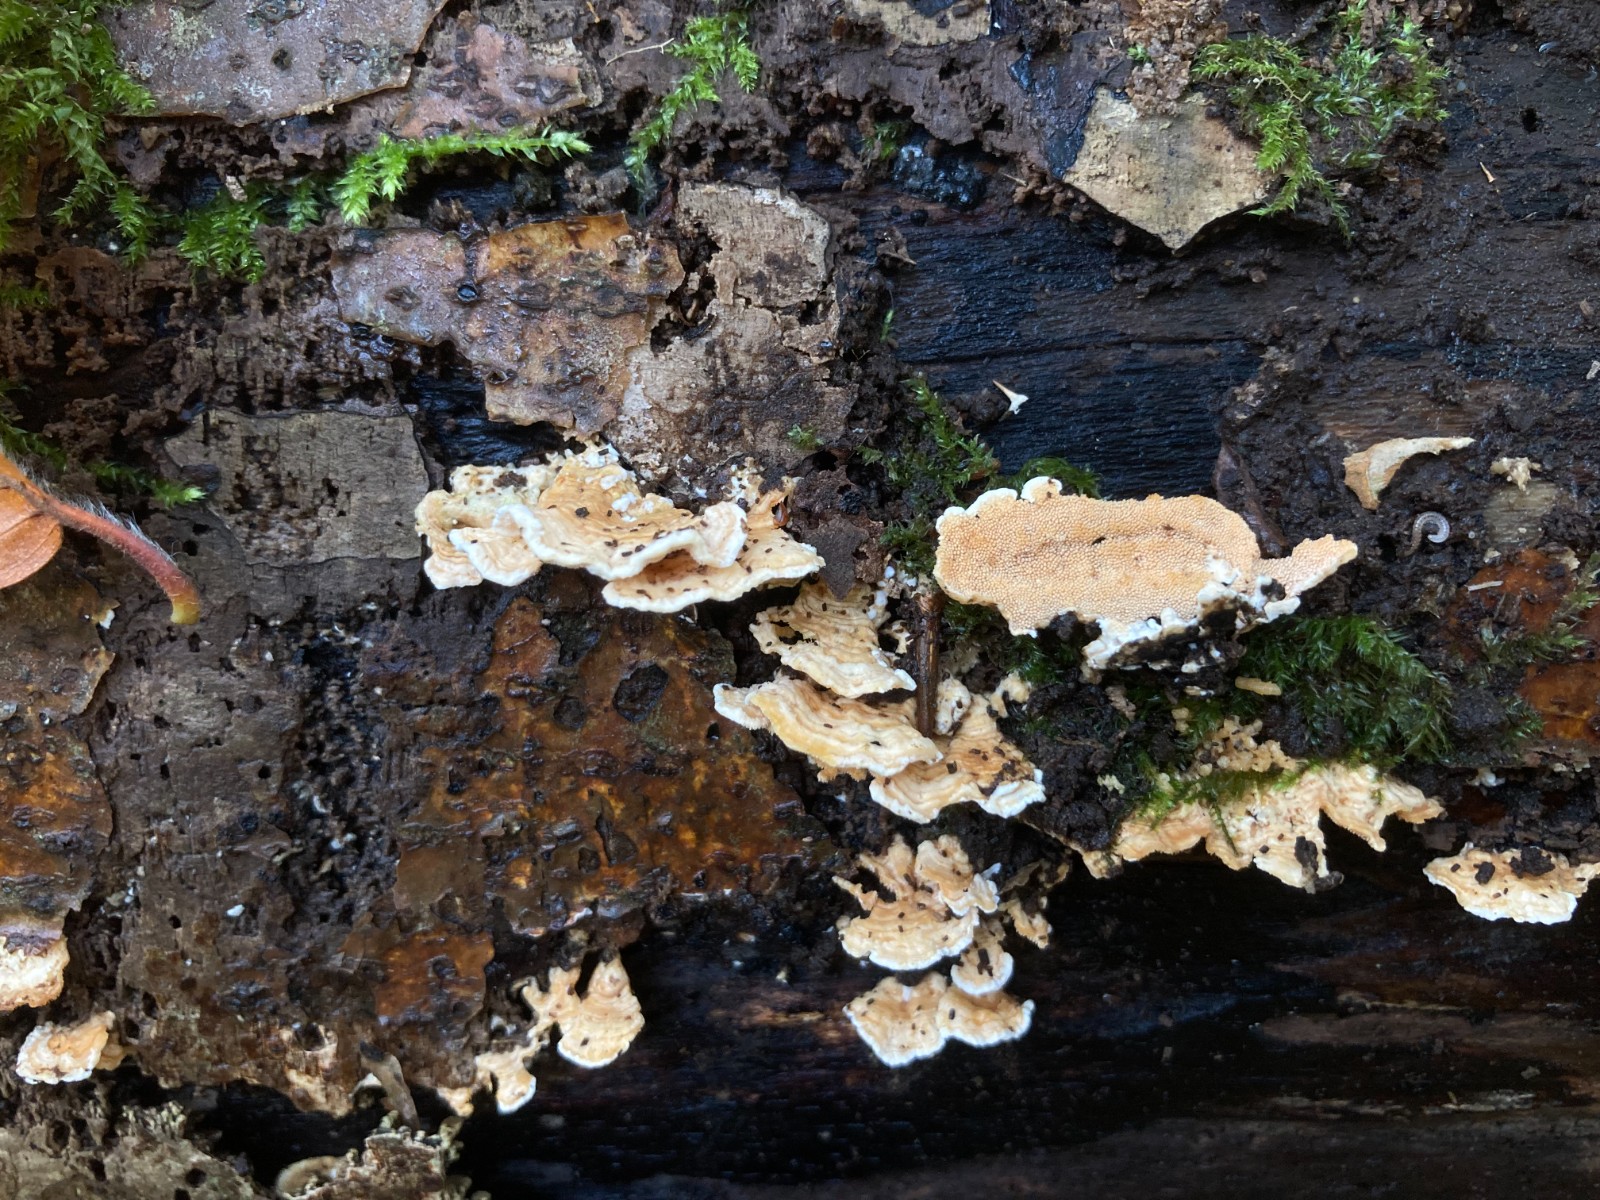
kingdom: Fungi
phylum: Basidiomycota
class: Agaricomycetes
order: Polyporales
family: Steccherinaceae
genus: Steccherinum
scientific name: Steccherinum ochraceum
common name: almindelig skønpig
